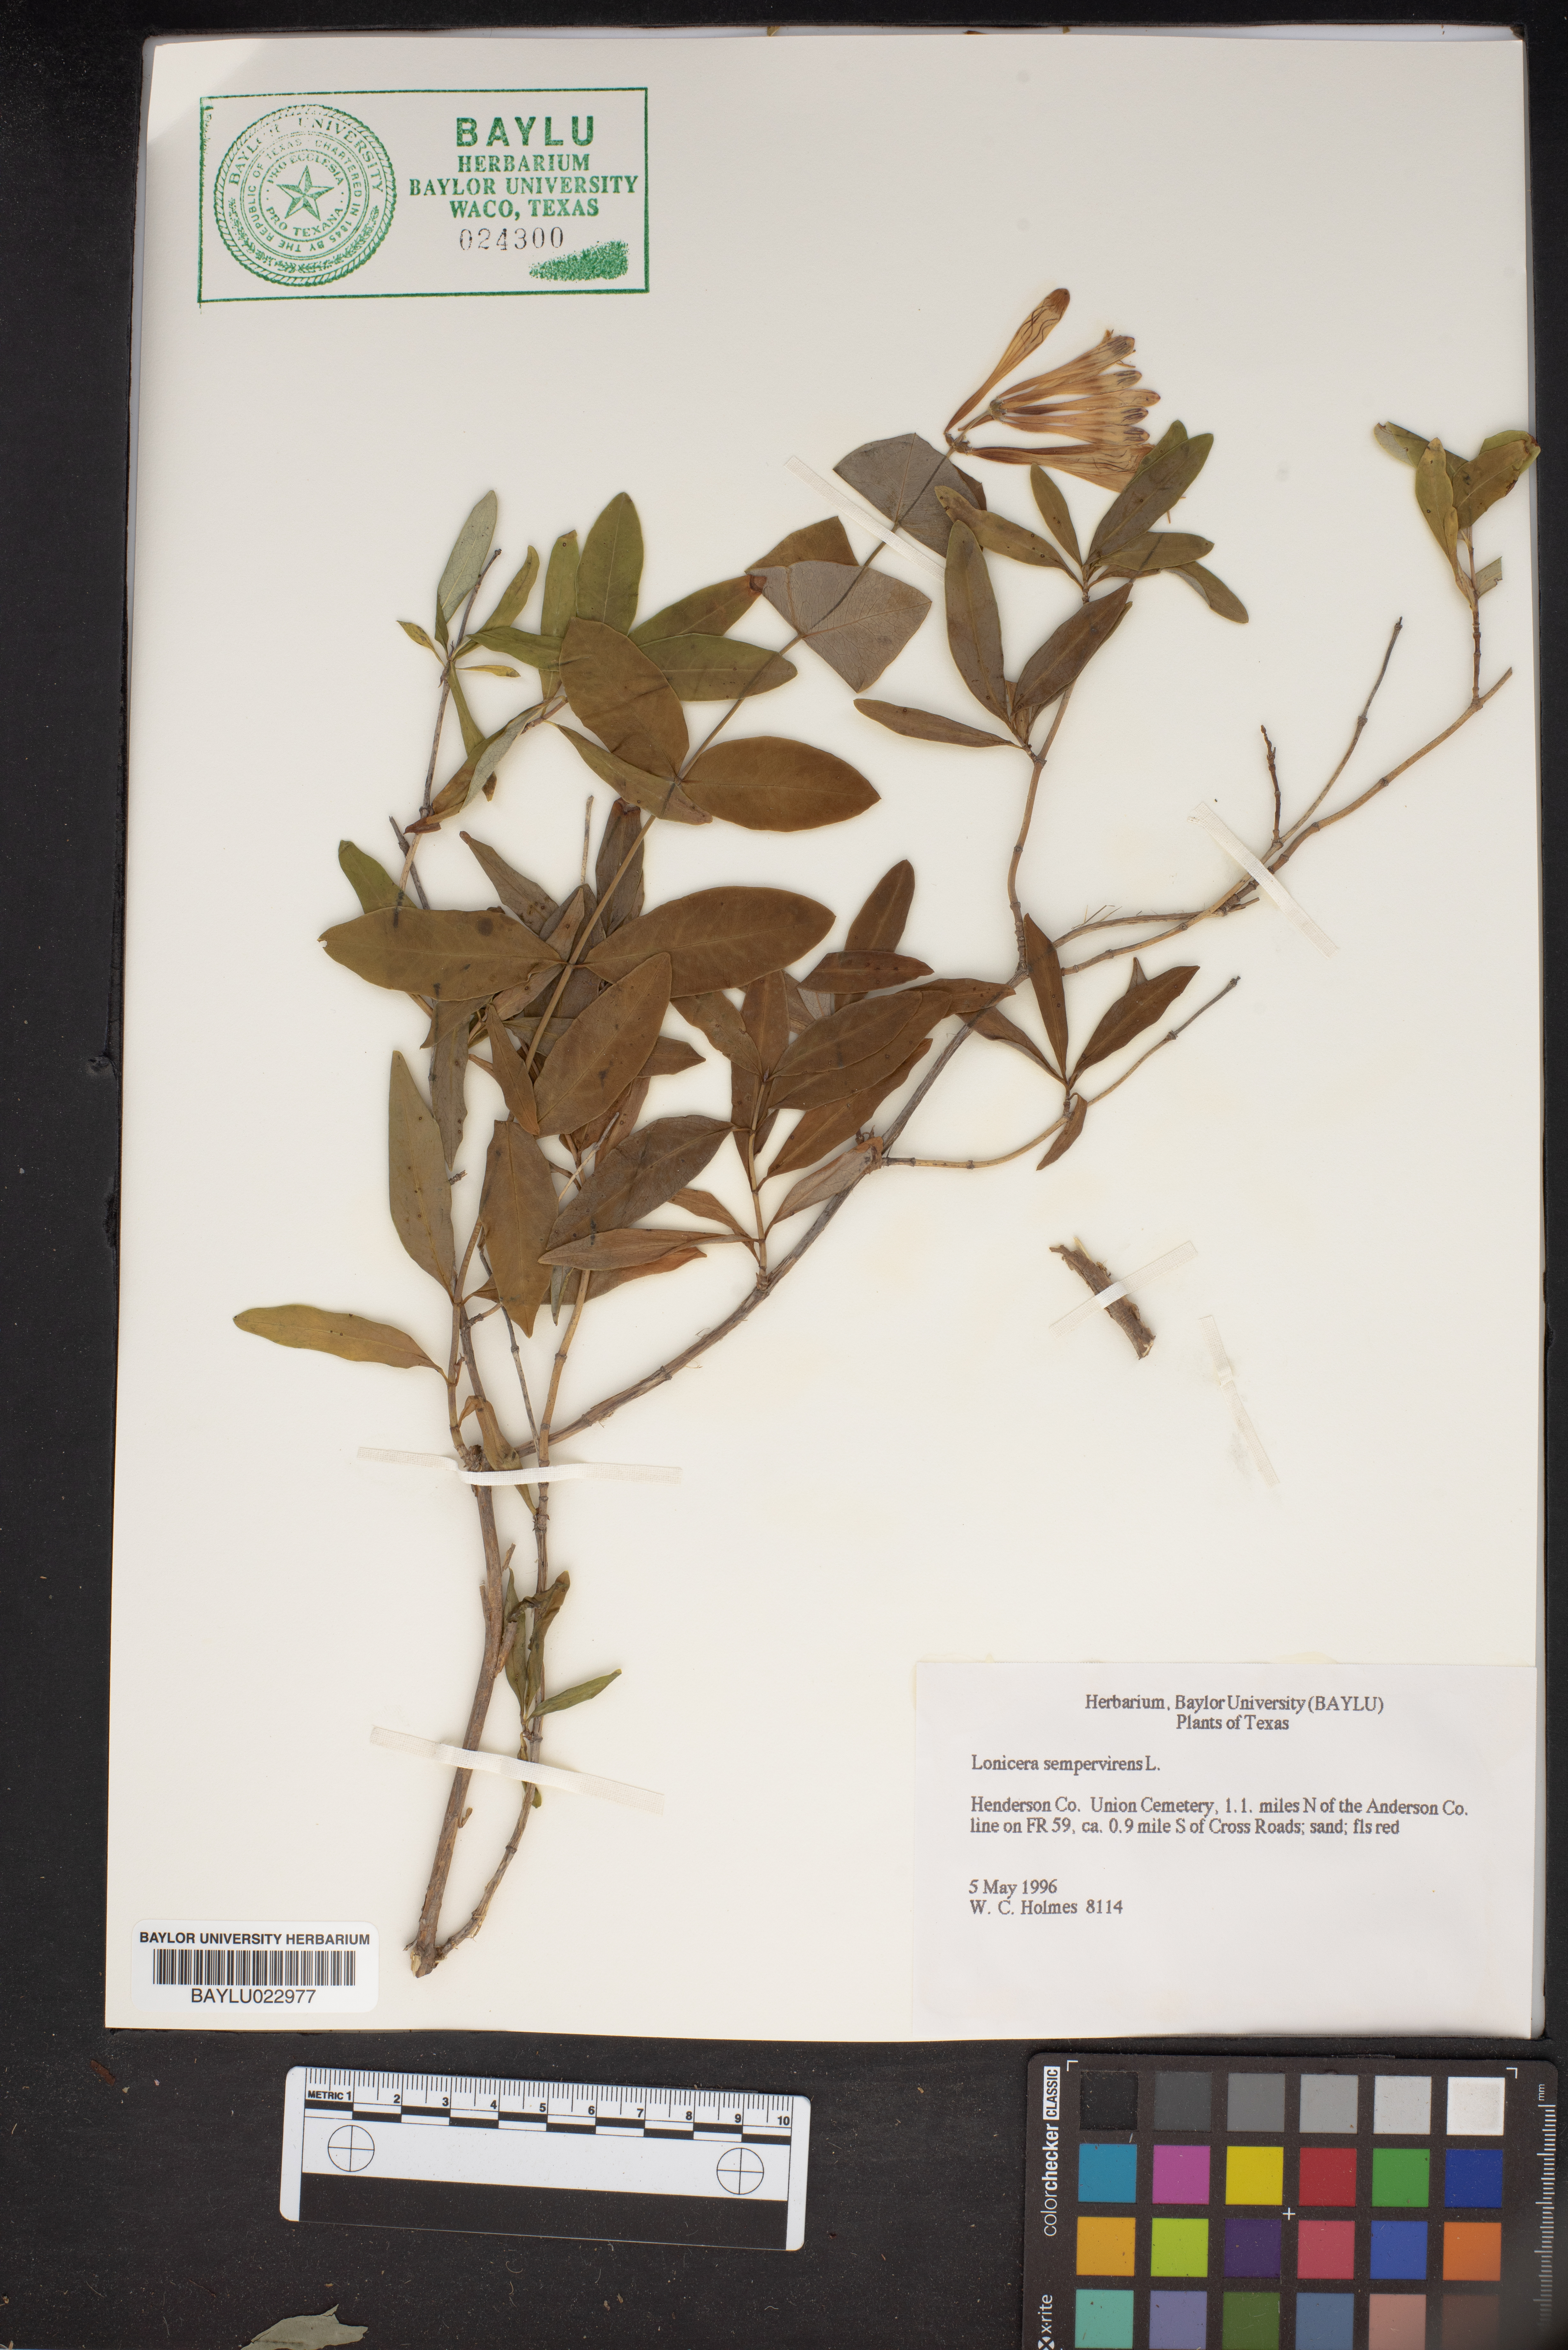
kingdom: Plantae
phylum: Tracheophyta
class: Magnoliopsida
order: Dipsacales
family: Caprifoliaceae
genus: Lonicera
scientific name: Lonicera sempervirens
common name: Coral honeysuckle
